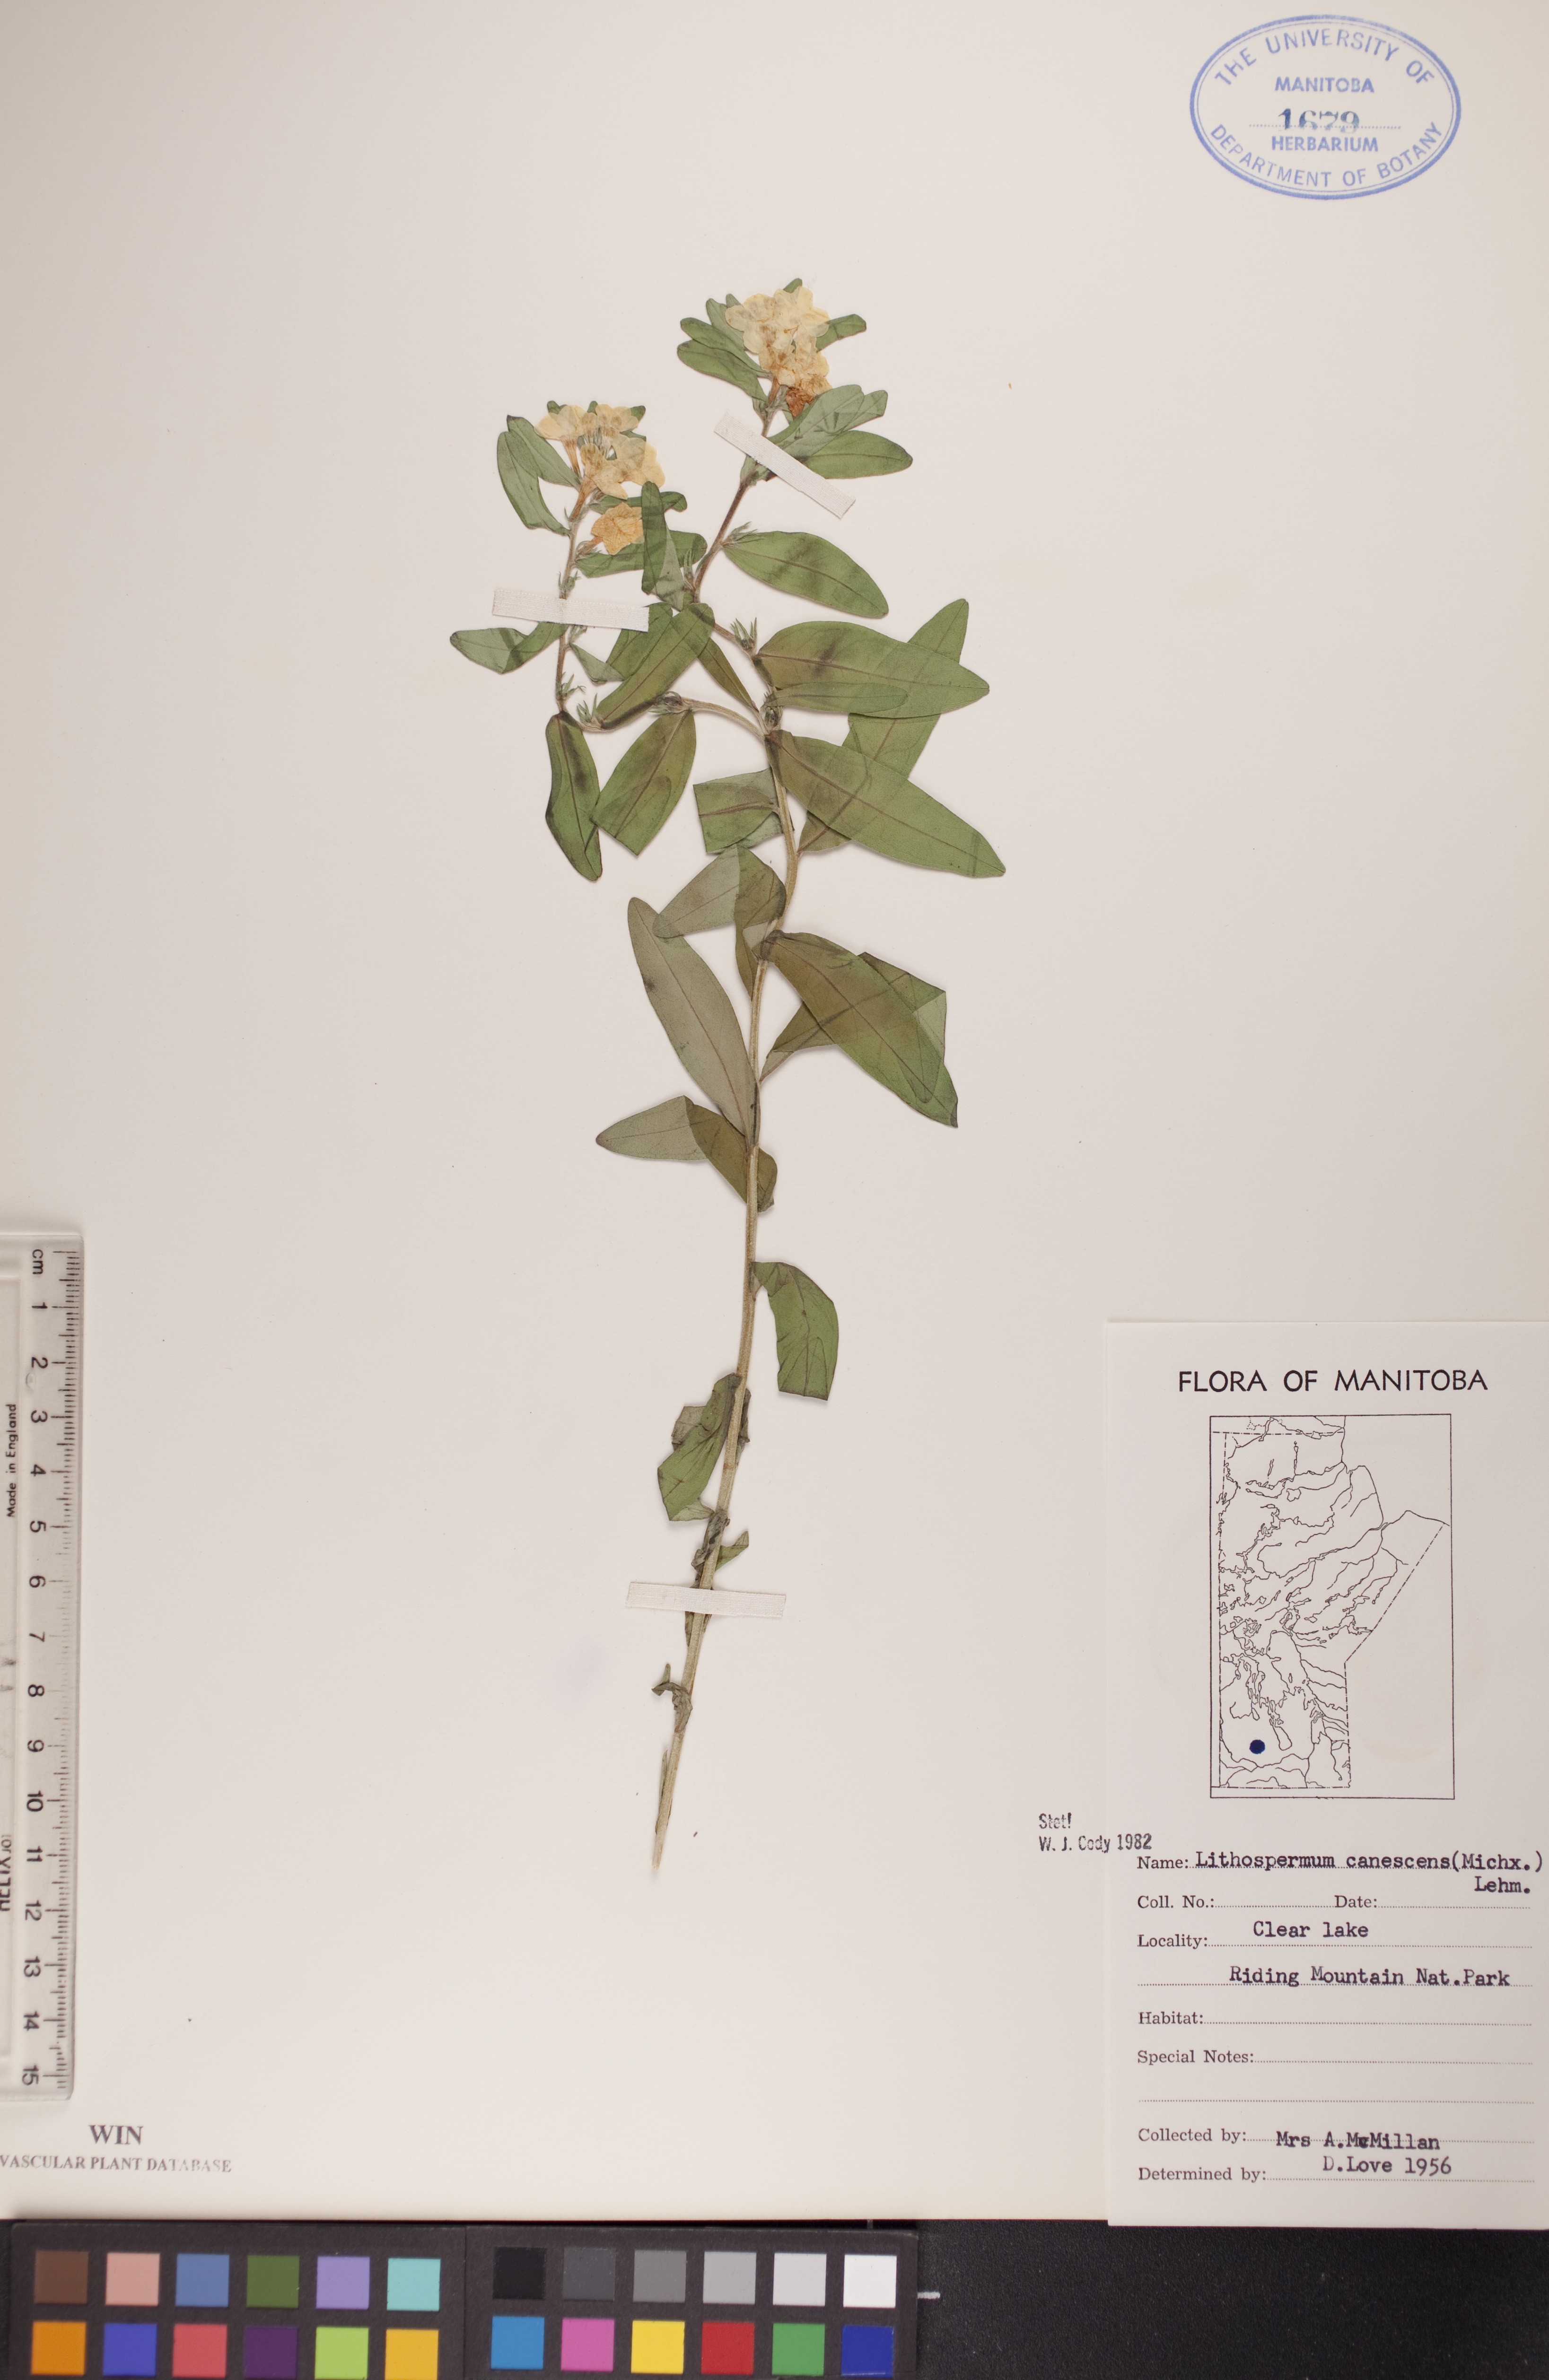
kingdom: Plantae
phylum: Tracheophyta
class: Magnoliopsida
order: Boraginales
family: Boraginaceae
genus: Lithospermum
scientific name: Lithospermum canescens
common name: Hoary puccoon
